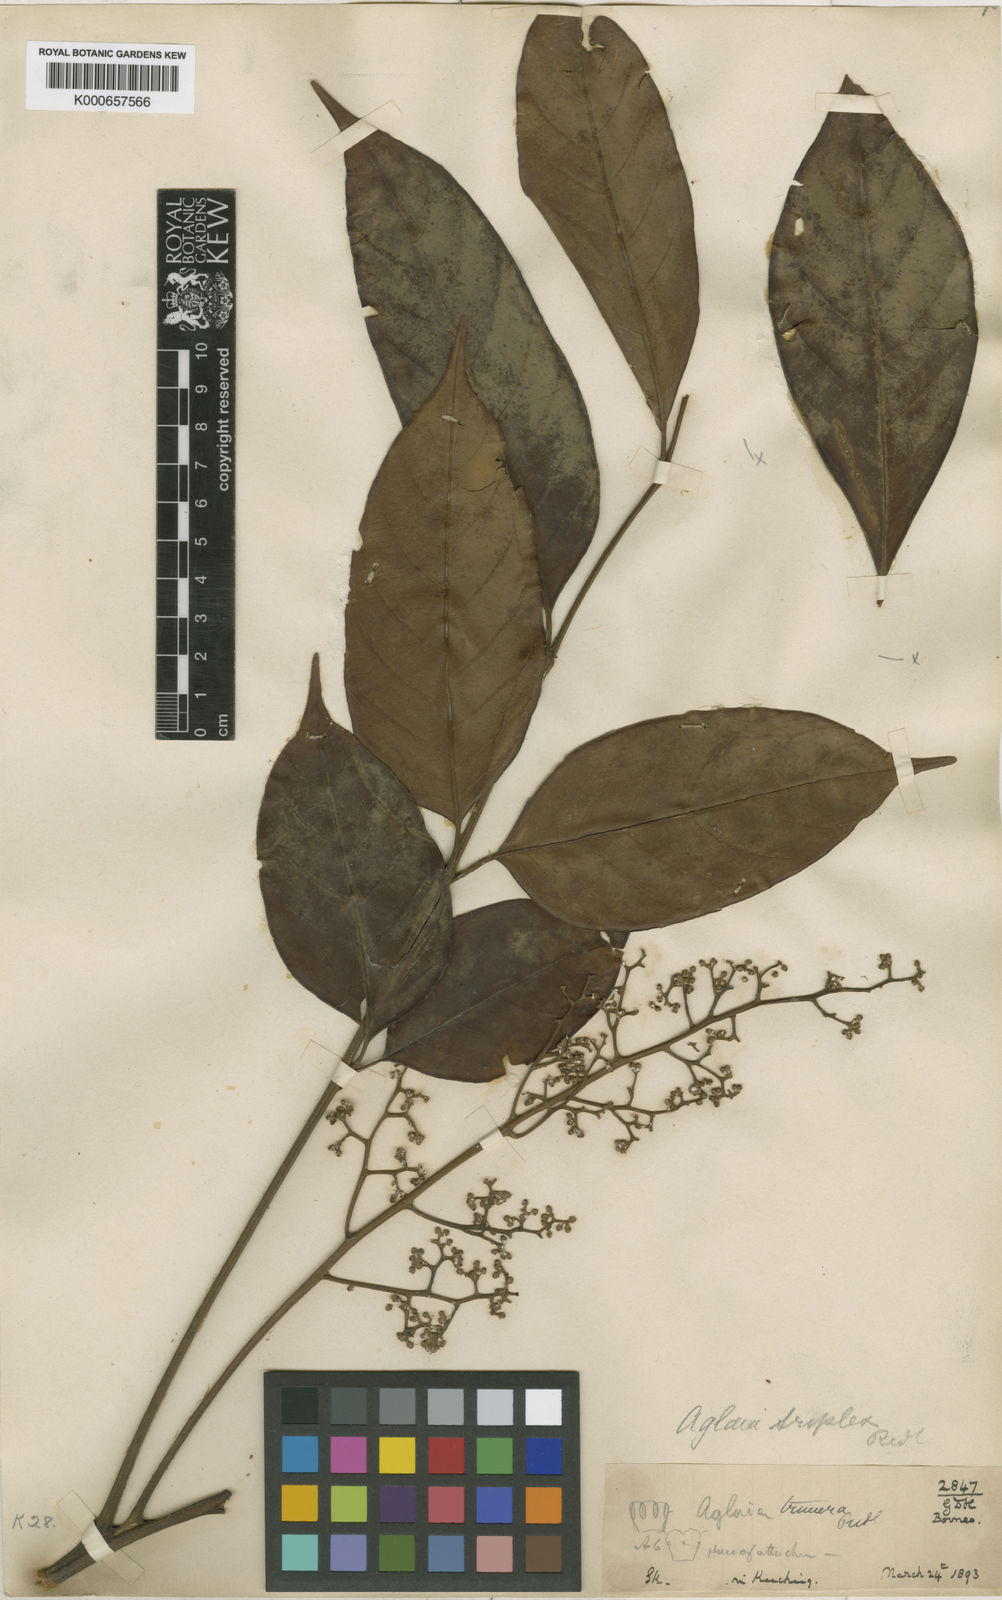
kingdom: Plantae
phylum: Tracheophyta
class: Magnoliopsida
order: Sapindales
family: Meliaceae
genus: Aglaia
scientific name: Aglaia macrocarpa
